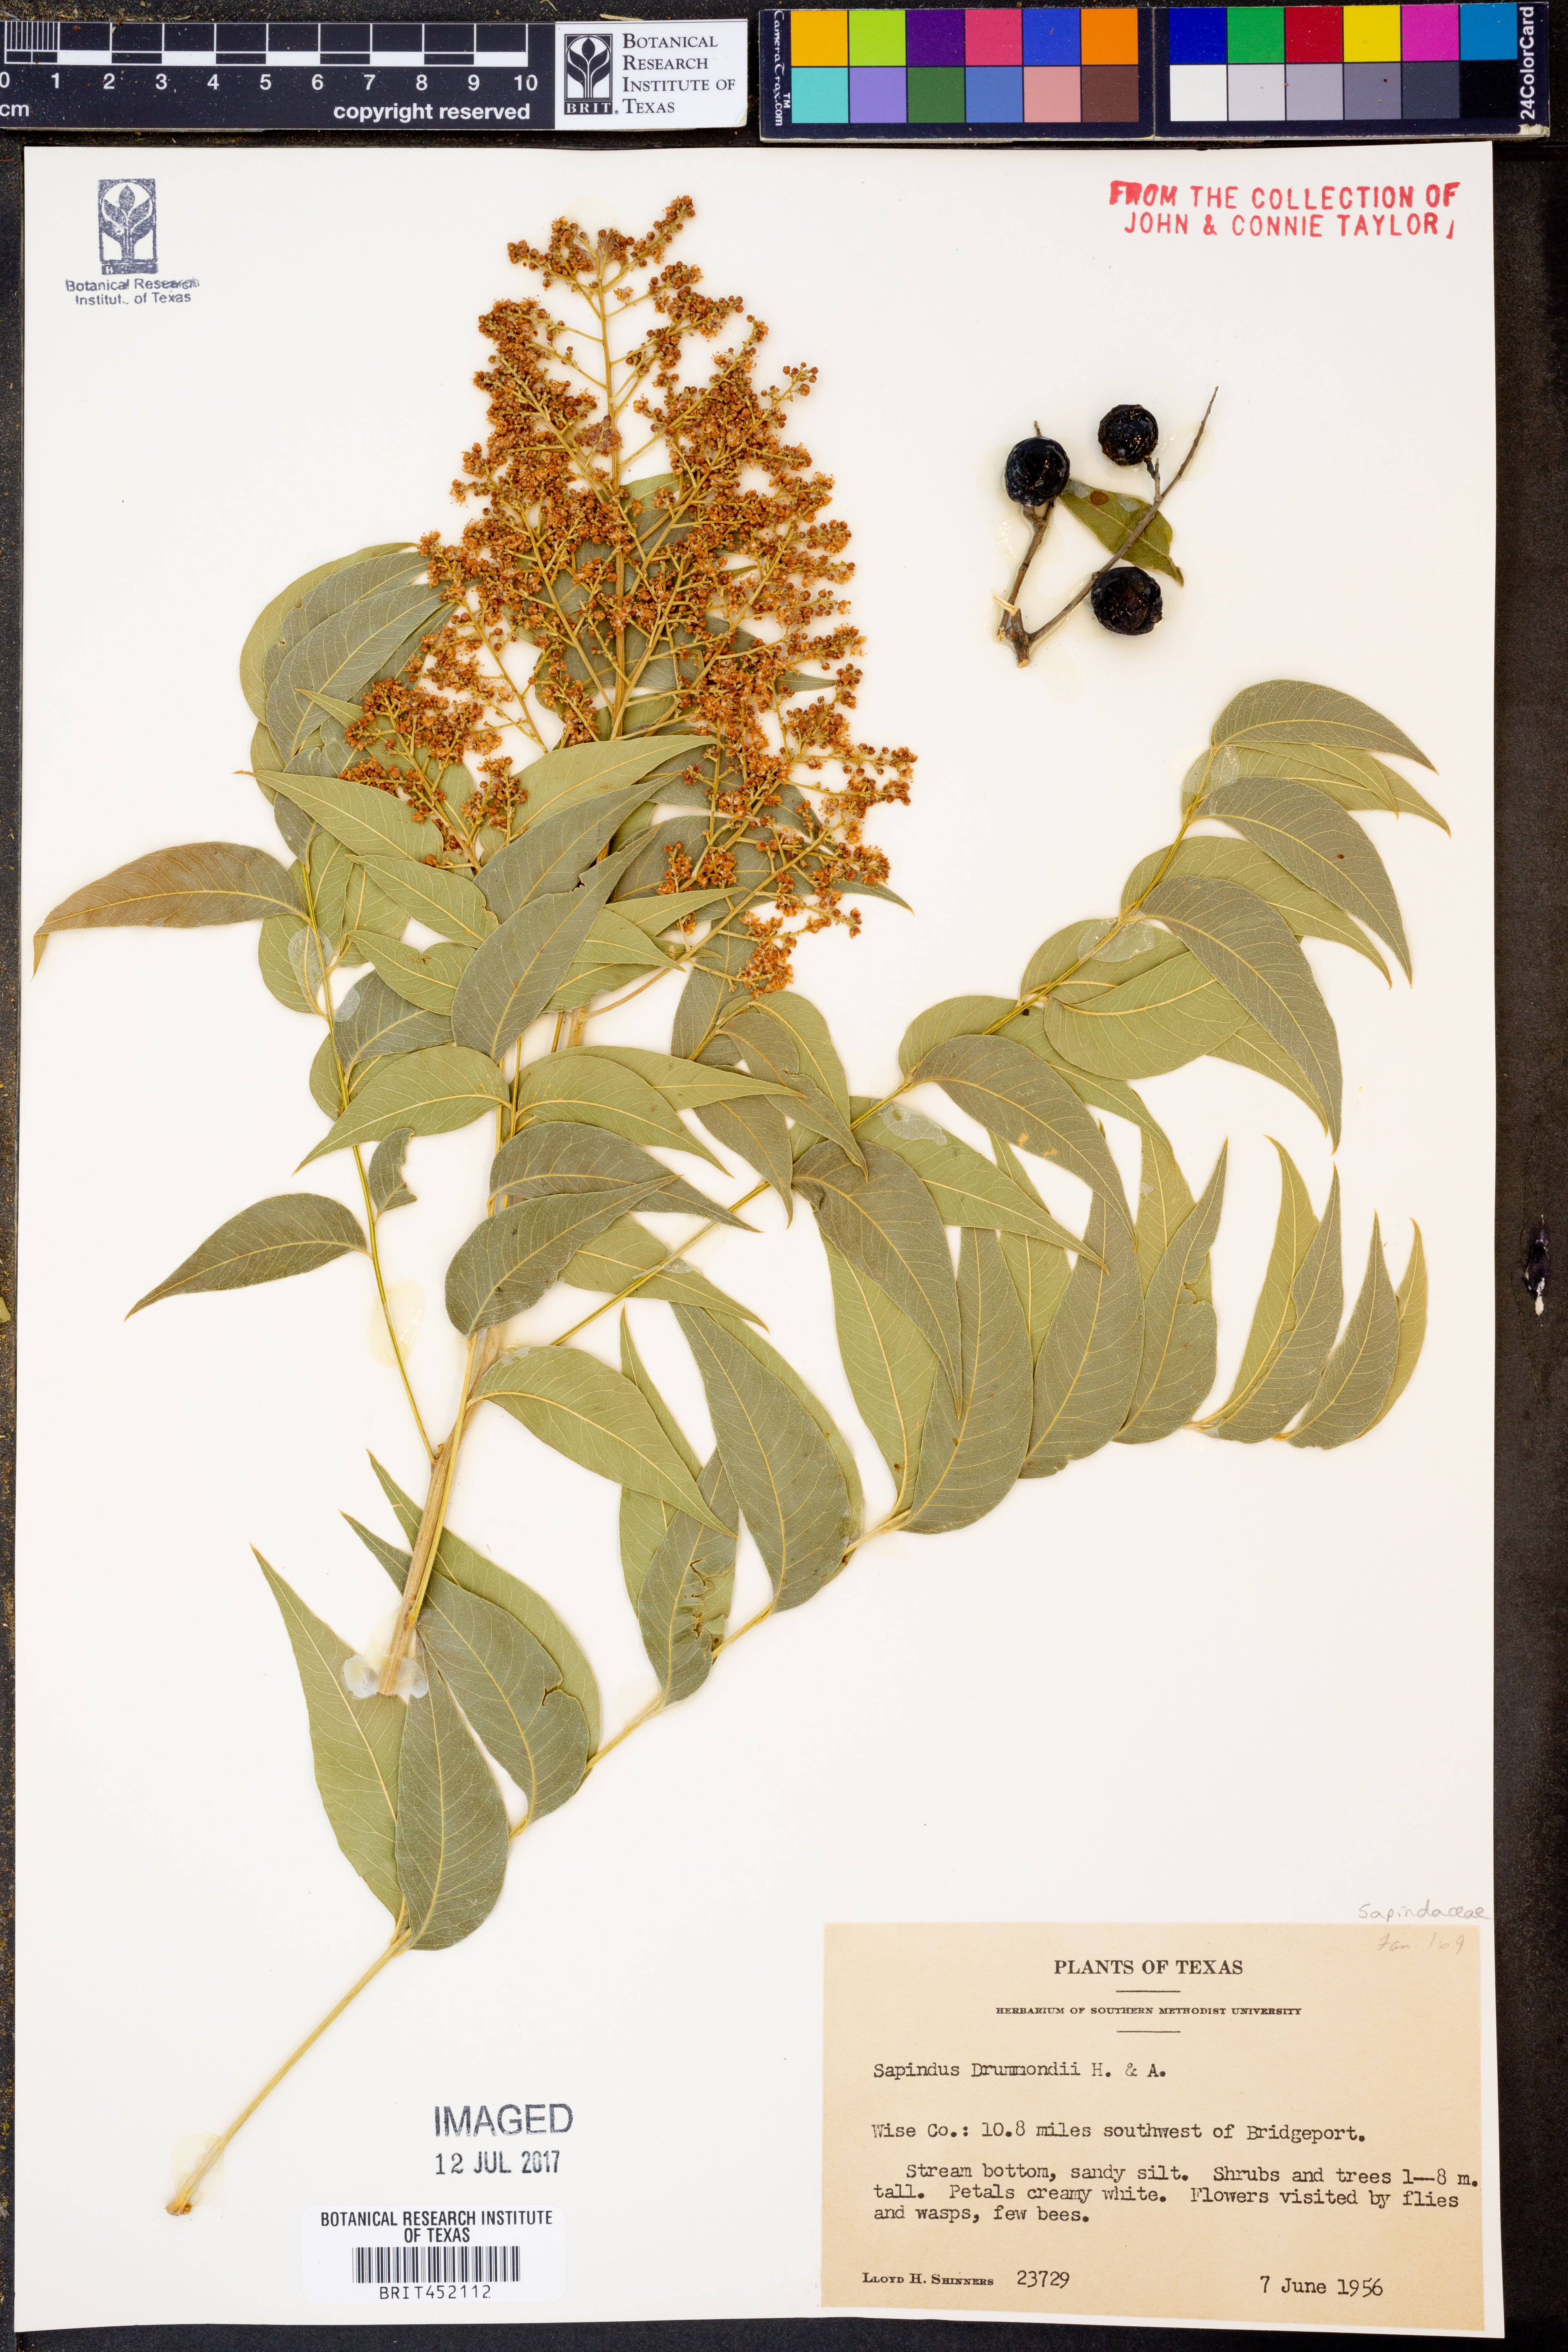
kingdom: Plantae
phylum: Tracheophyta
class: Magnoliopsida
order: Sapindales
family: Sapindaceae
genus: Sapindus
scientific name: Sapindus drummondii
